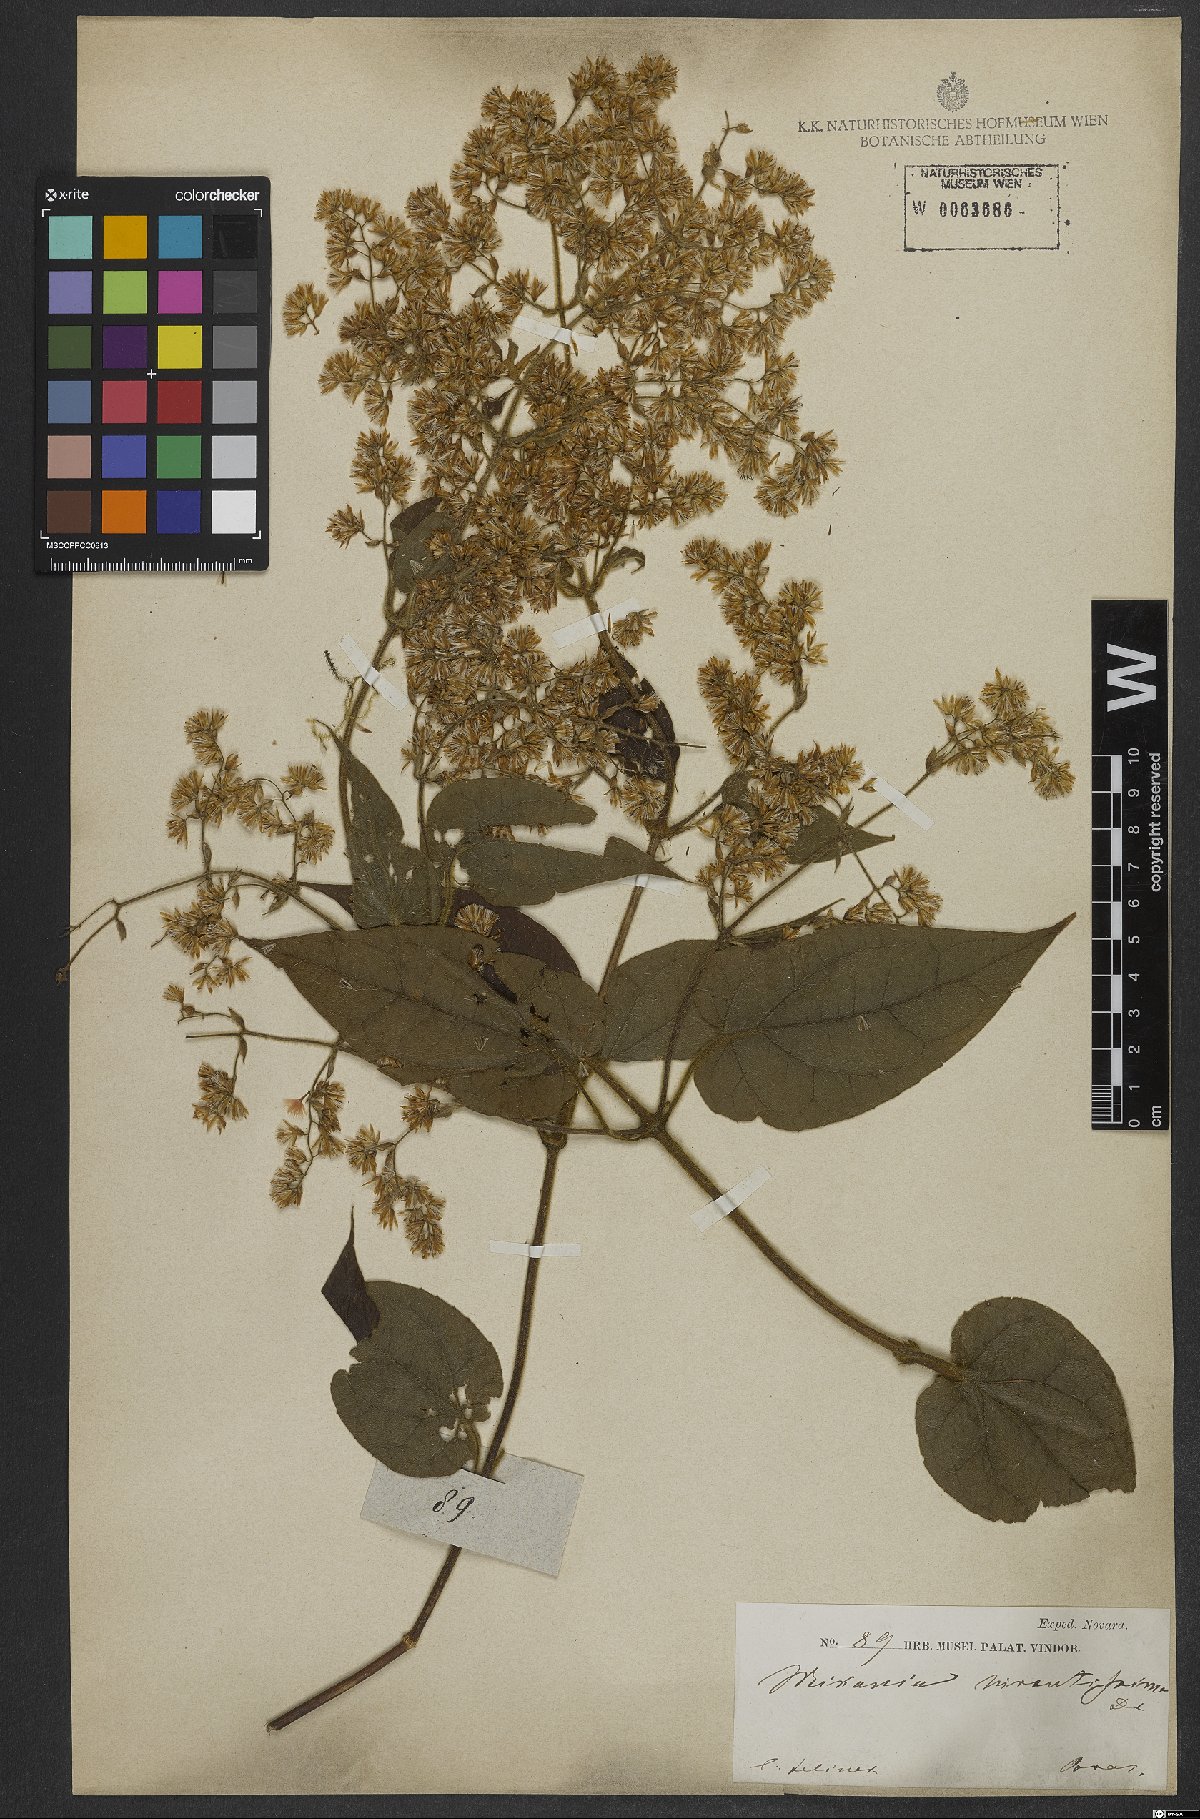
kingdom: Plantae
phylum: Tracheophyta
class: Magnoliopsida
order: Asterales
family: Asteraceae
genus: Mikania
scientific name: Mikania banisteriae
